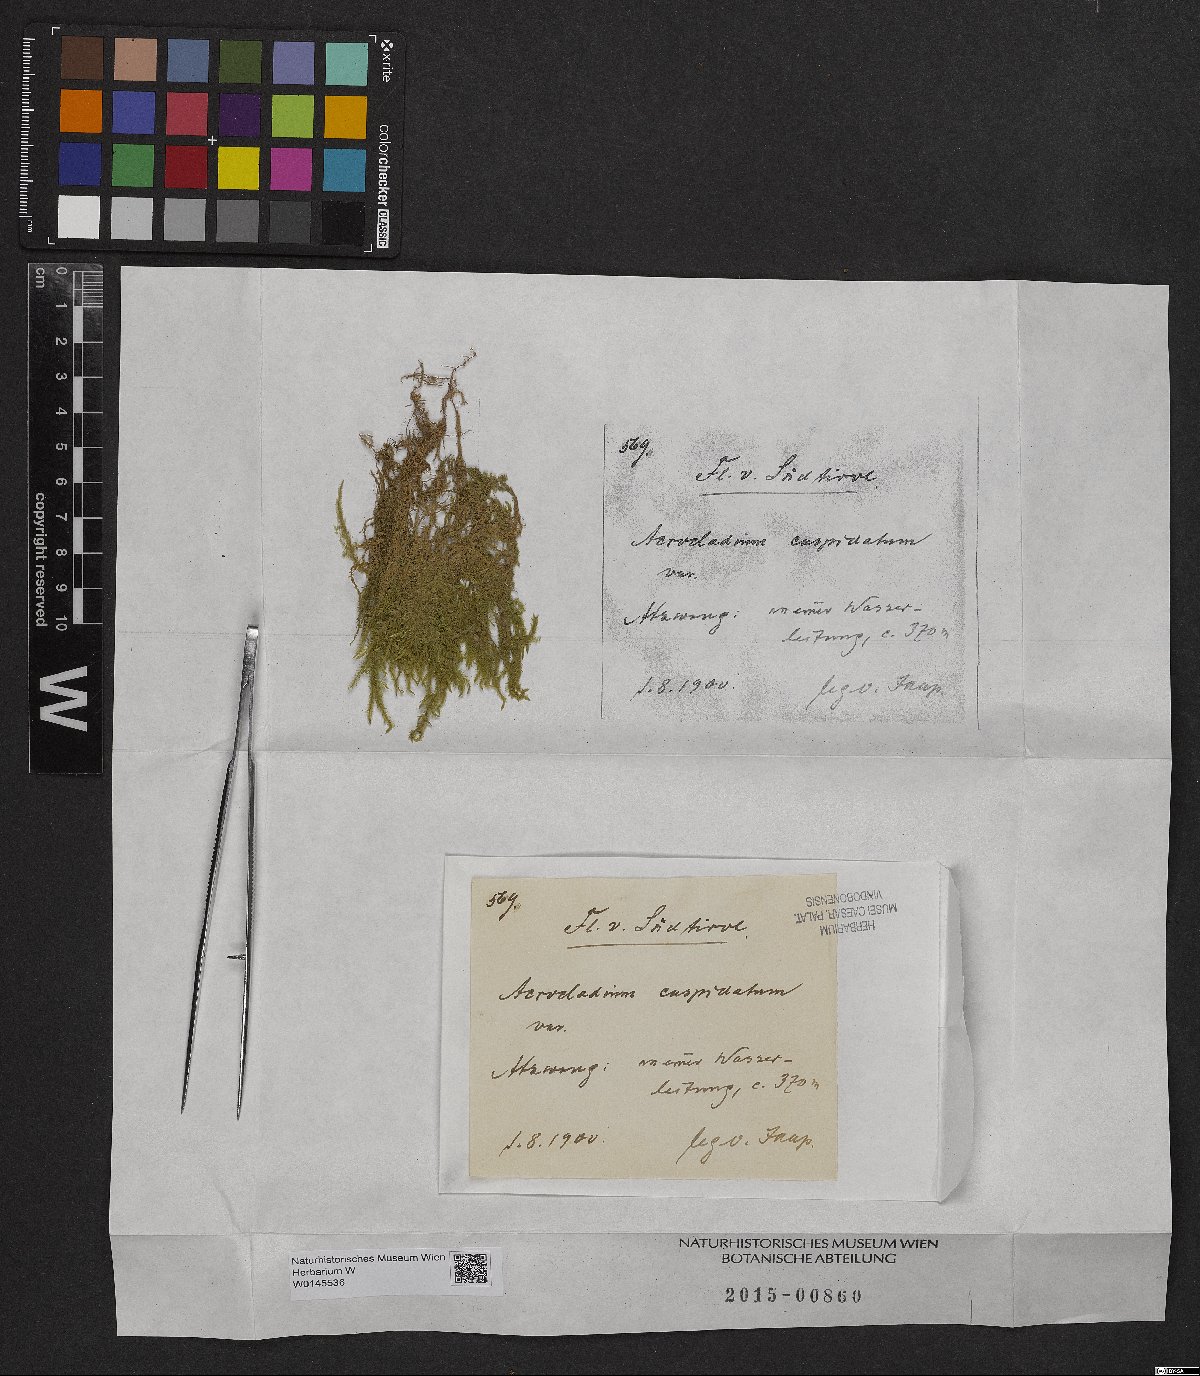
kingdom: Plantae
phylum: Bryophyta
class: Bryopsida
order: Hypnales
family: Lembophyllaceae
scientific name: Lembophyllaceae
